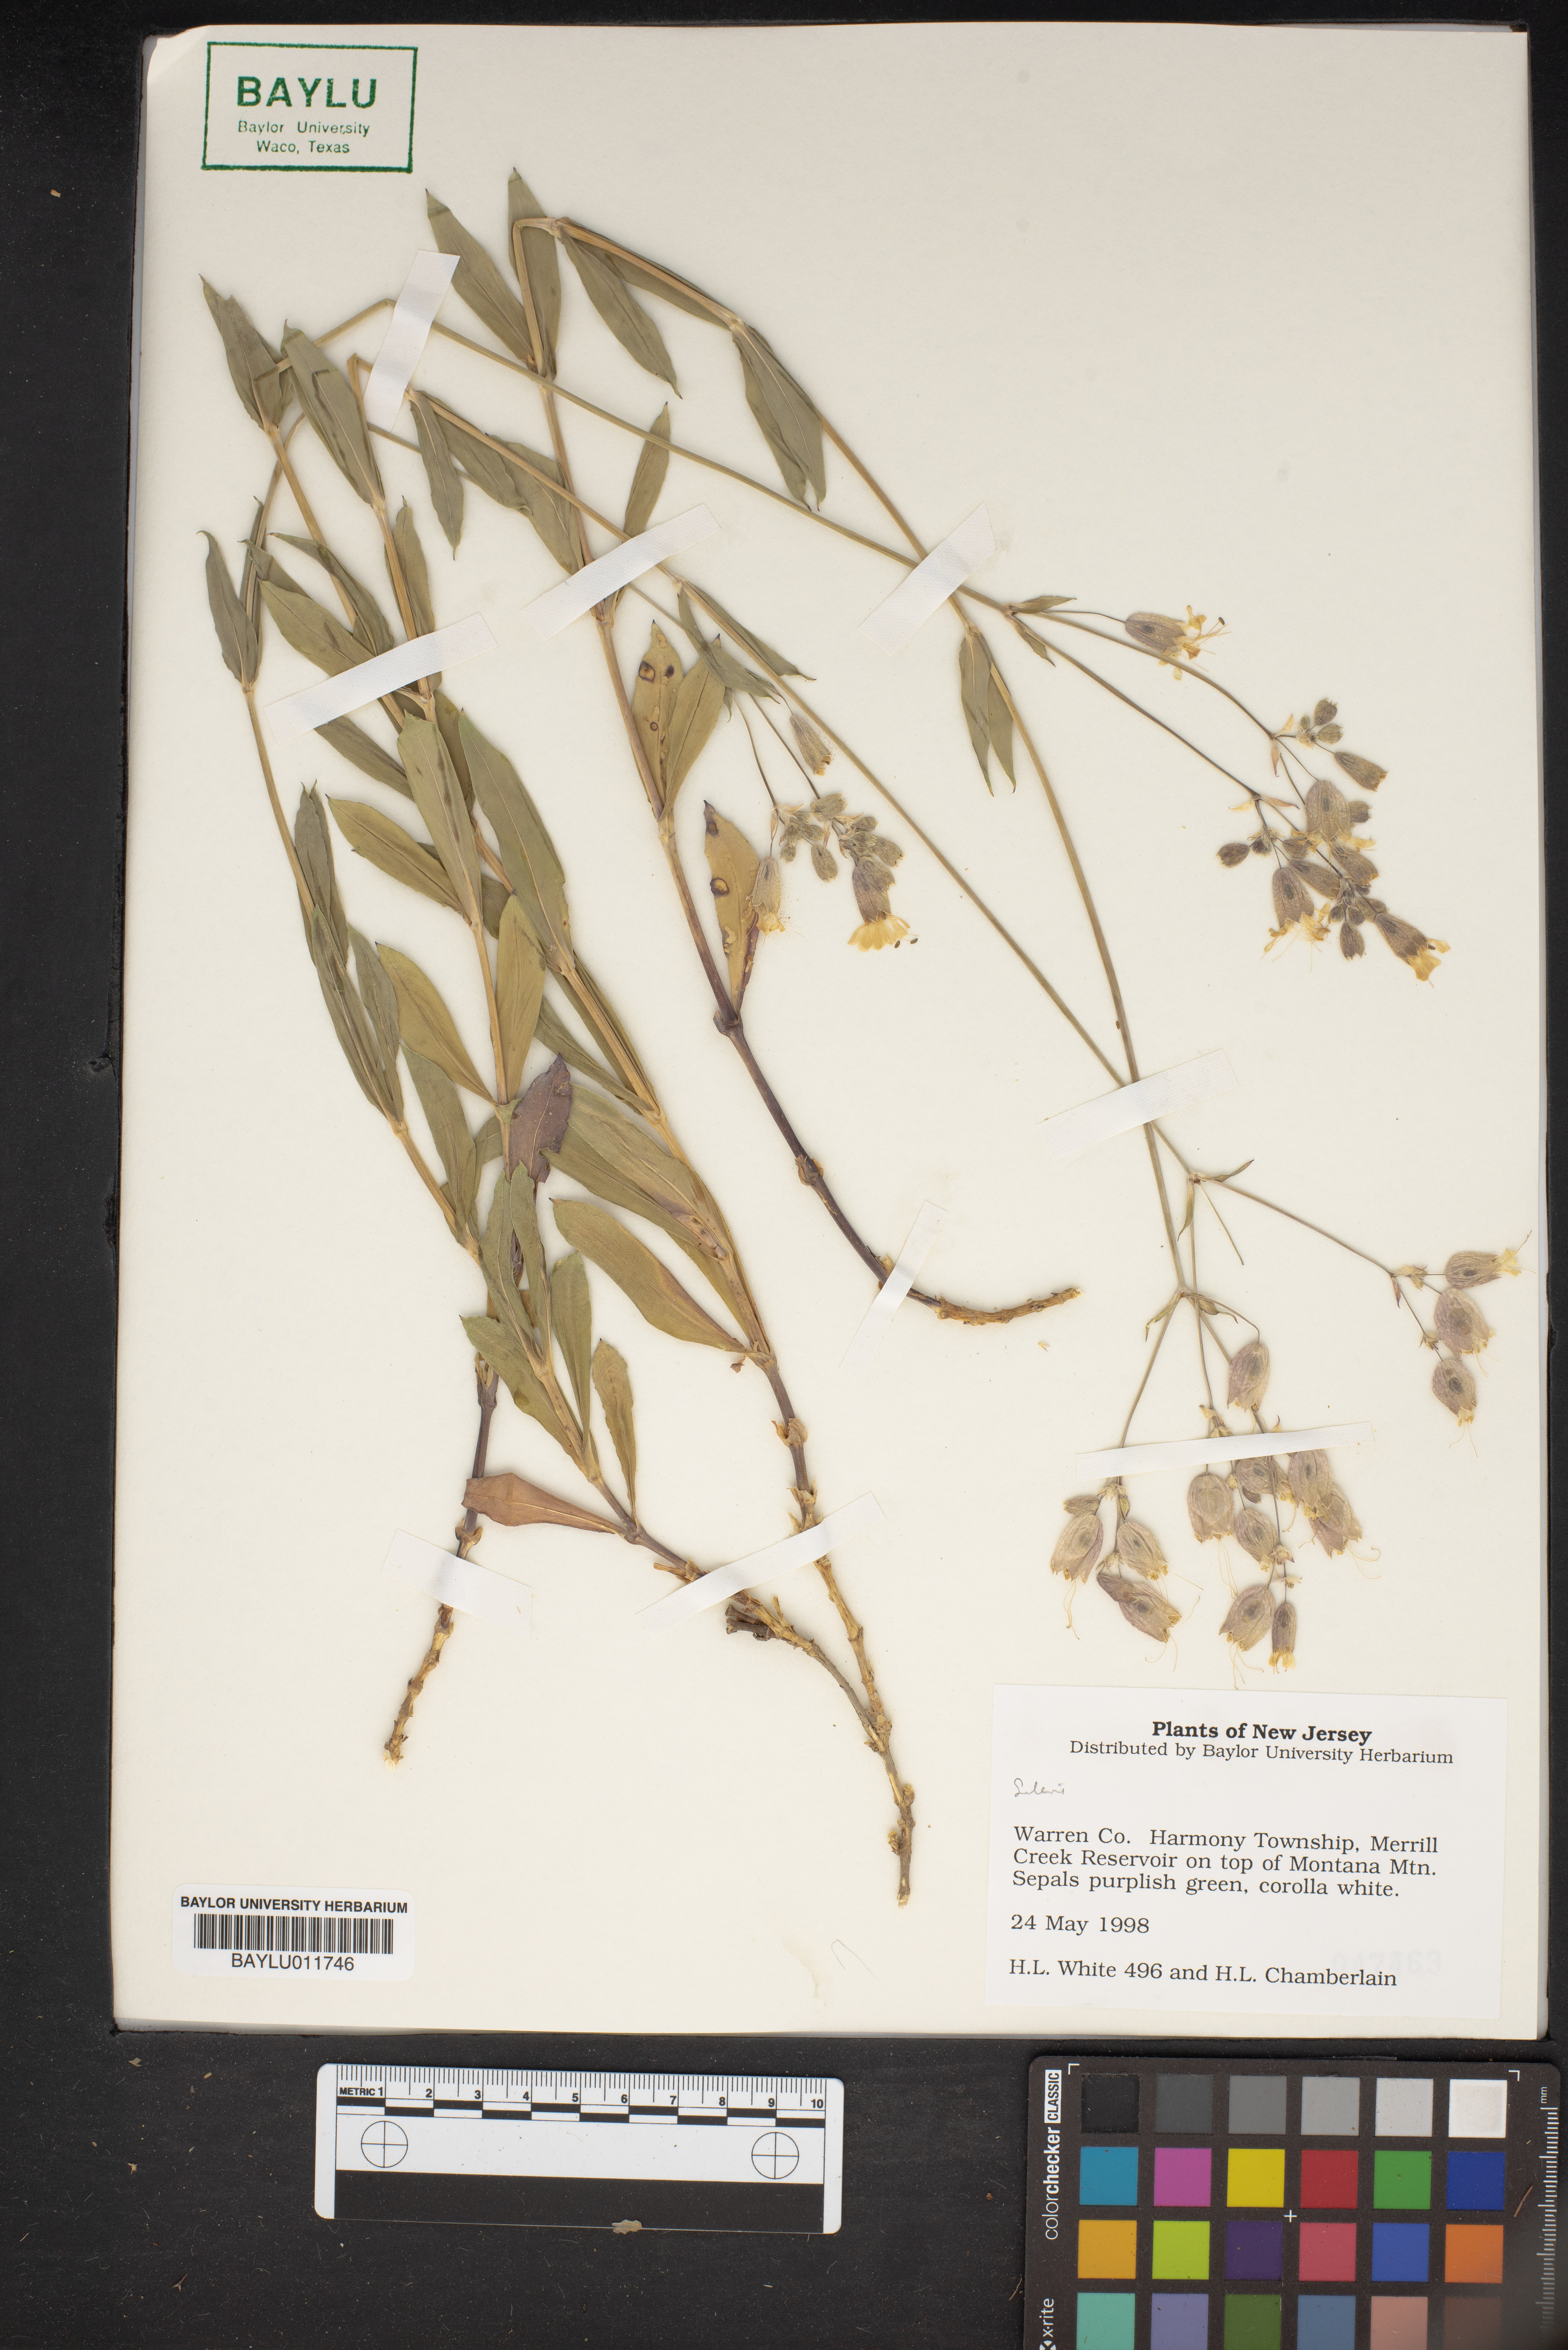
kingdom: Plantae
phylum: Tracheophyta
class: Magnoliopsida
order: Caryophyllales
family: Caryophyllaceae
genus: Silene
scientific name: Silene
